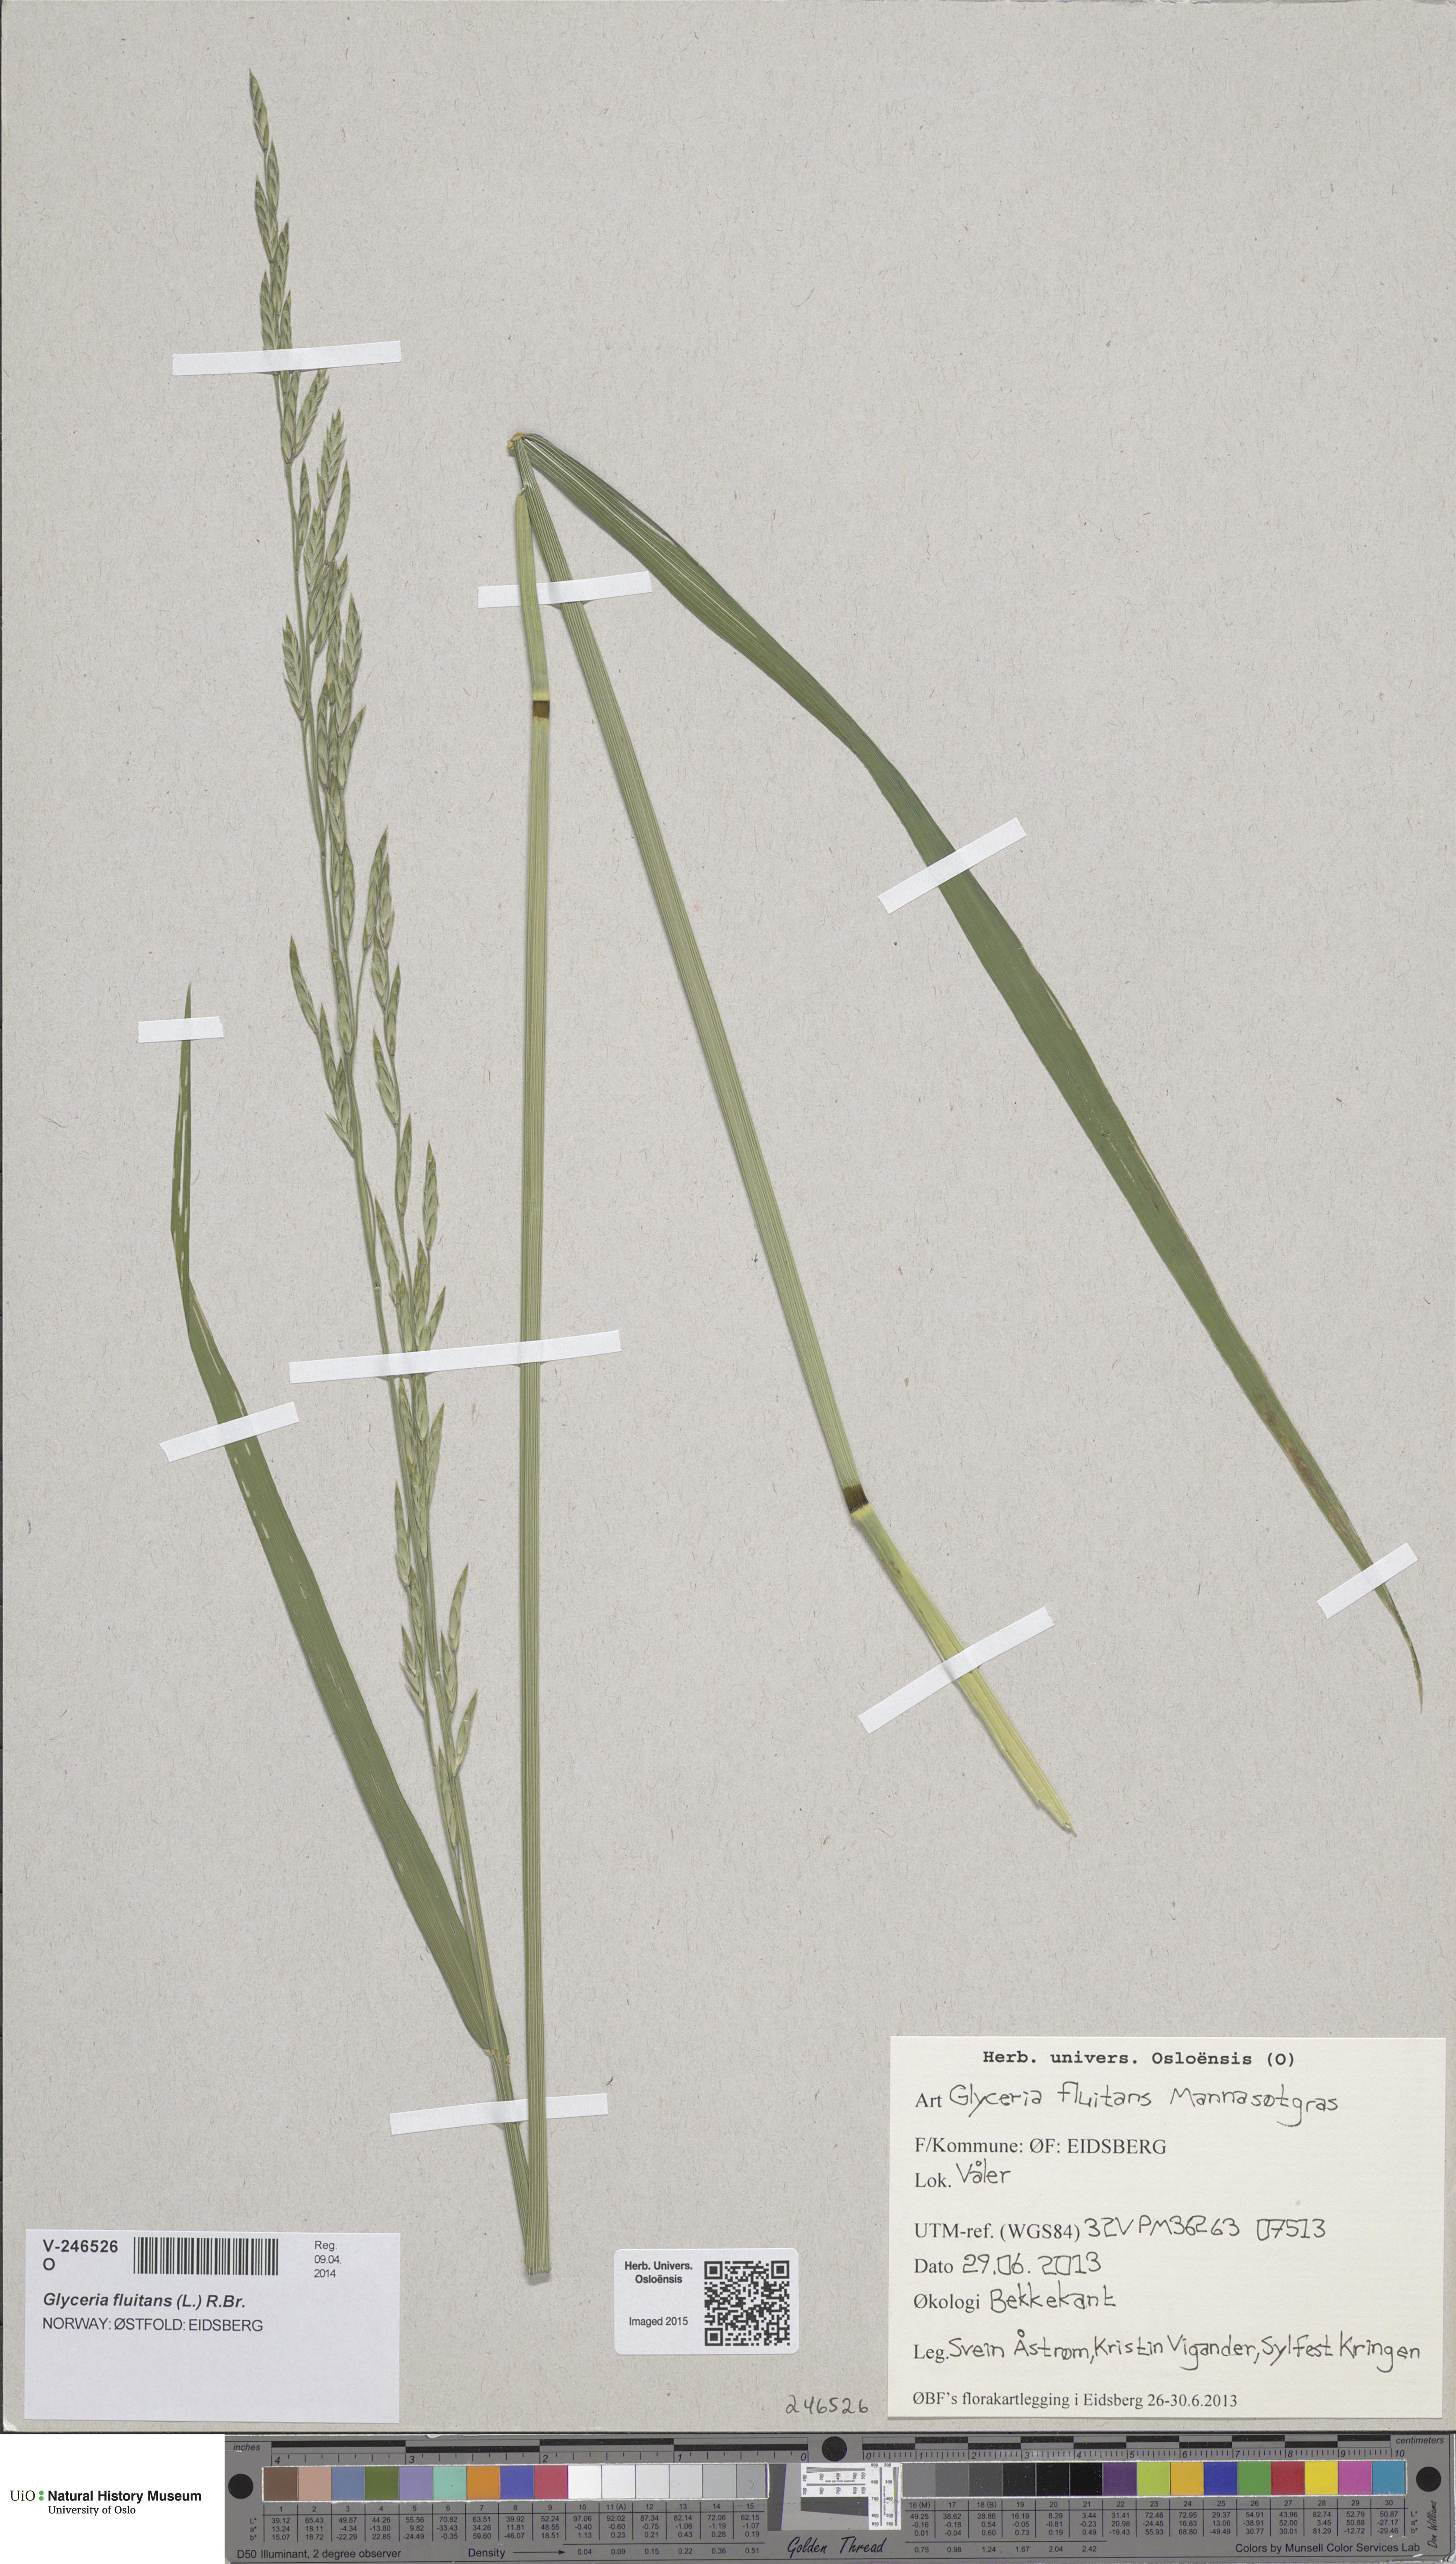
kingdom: Plantae
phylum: Tracheophyta
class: Liliopsida
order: Poales
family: Poaceae
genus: Lolium
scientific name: Lolium pratense
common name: Dover grass
